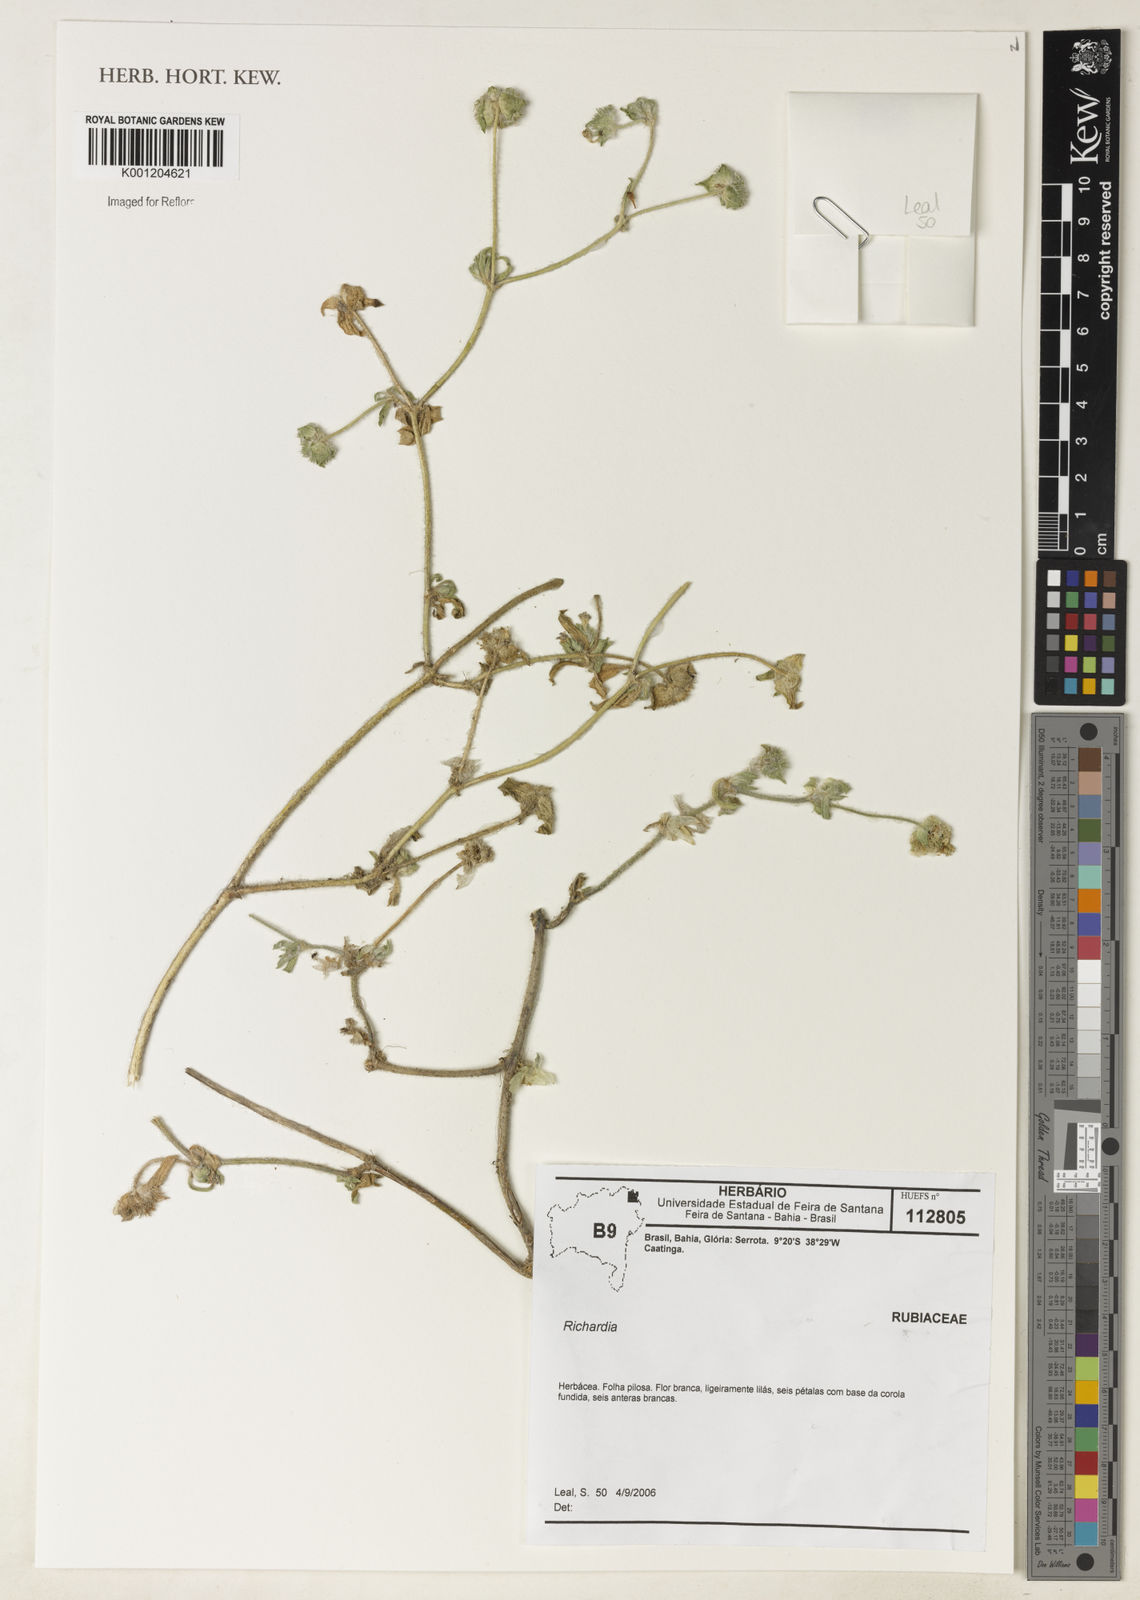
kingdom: Plantae
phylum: Tracheophyta
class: Magnoliopsida
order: Gentianales
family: Rubiaceae
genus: Richardia
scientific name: Richardia
